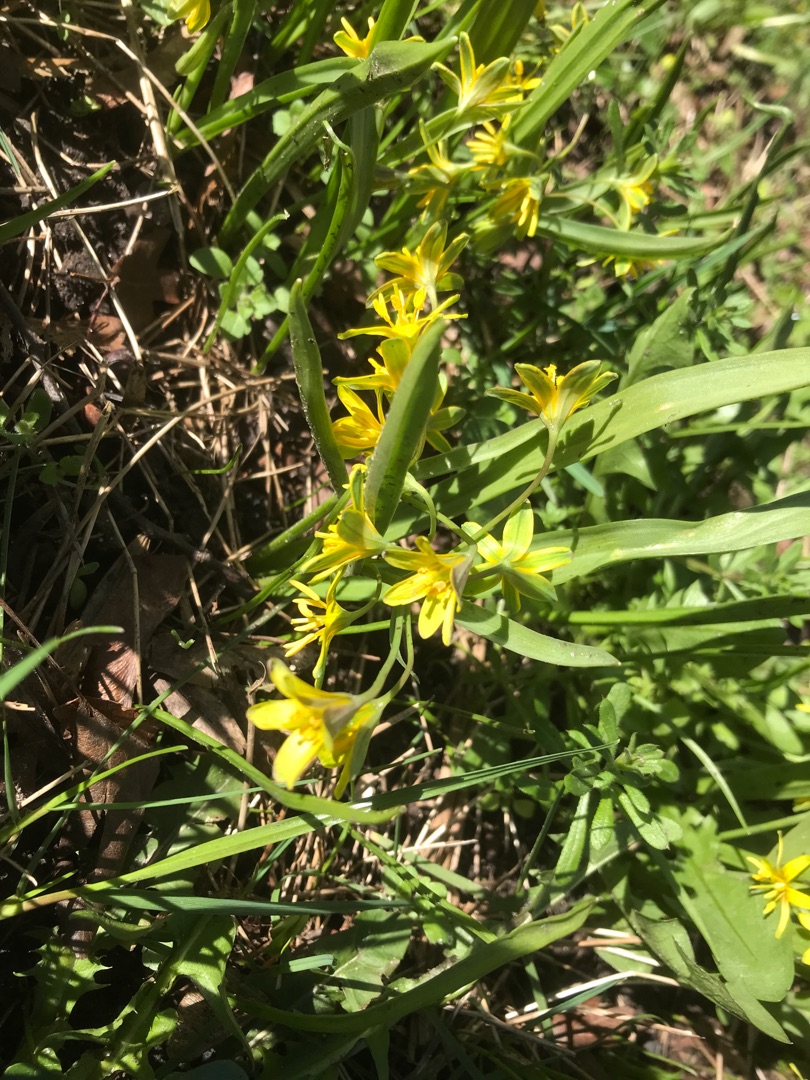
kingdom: Plantae
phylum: Tracheophyta
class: Liliopsida
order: Liliales
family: Liliaceae
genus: Gagea
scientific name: Gagea lutea
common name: Almindelig guldstjerne
